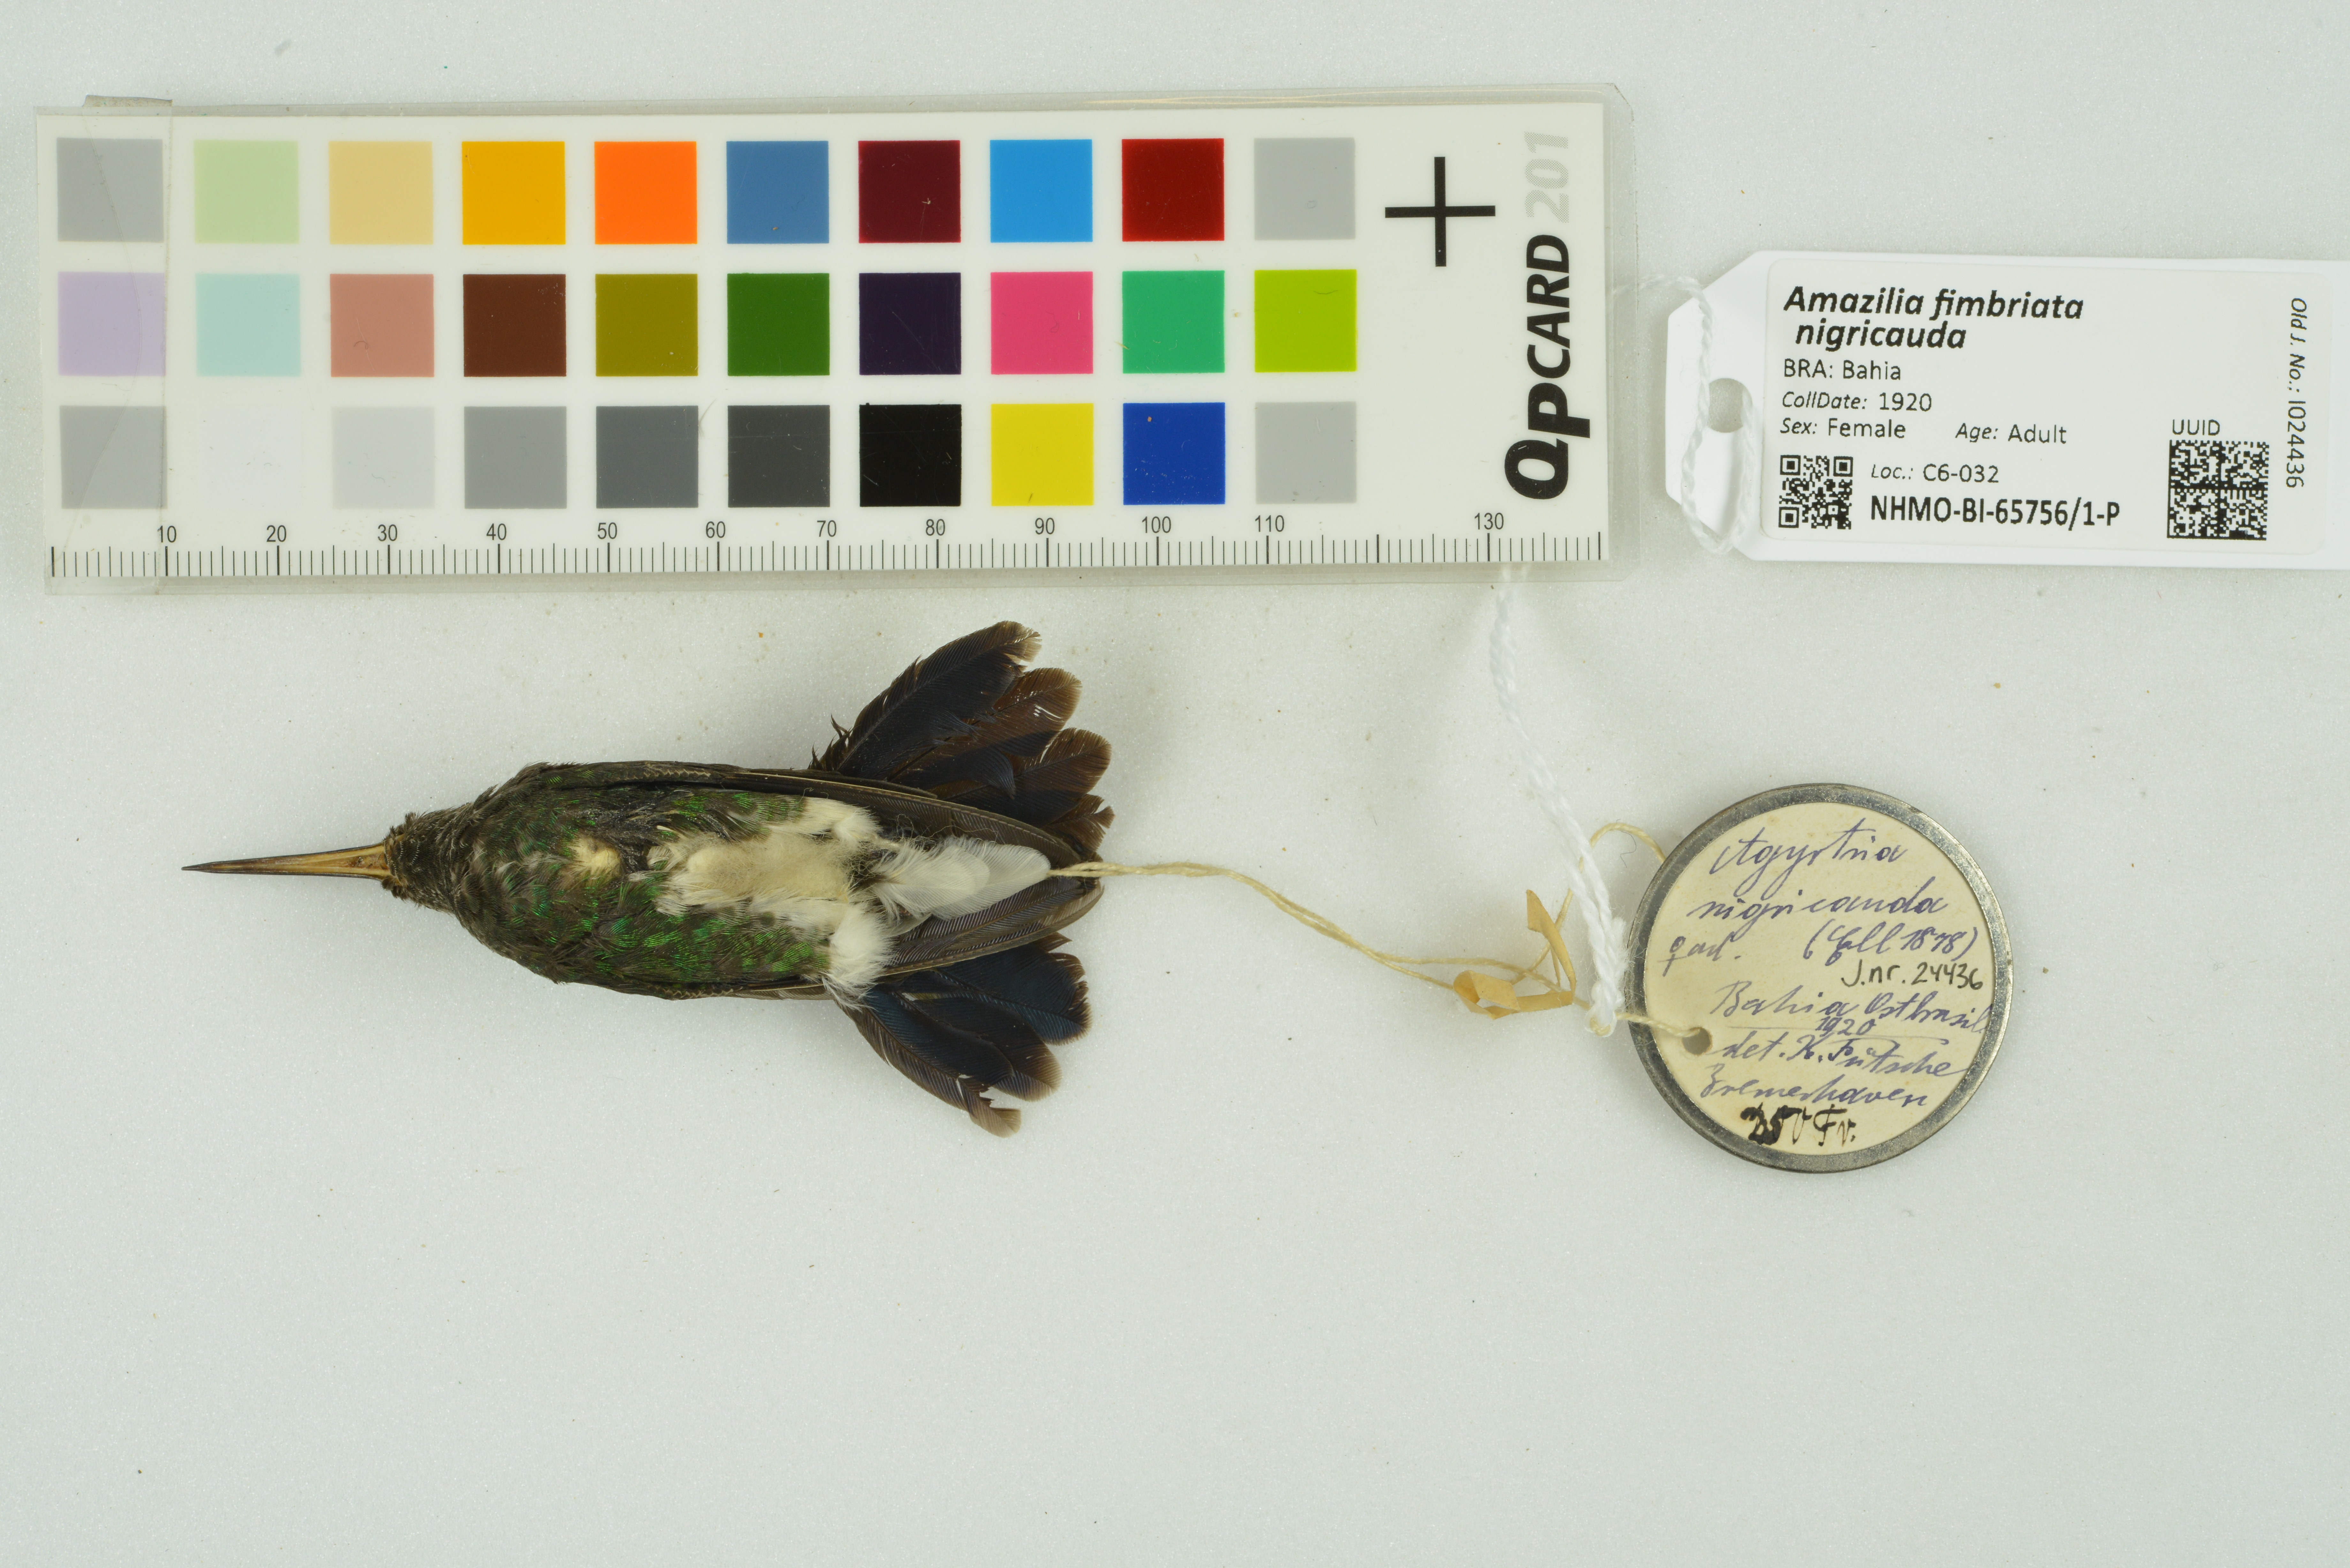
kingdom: Animalia
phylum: Chordata
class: Aves
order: Apodiformes
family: Trochilidae
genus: Chionomesa
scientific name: Chionomesa fimbriata
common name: Glittering-throated emerald
